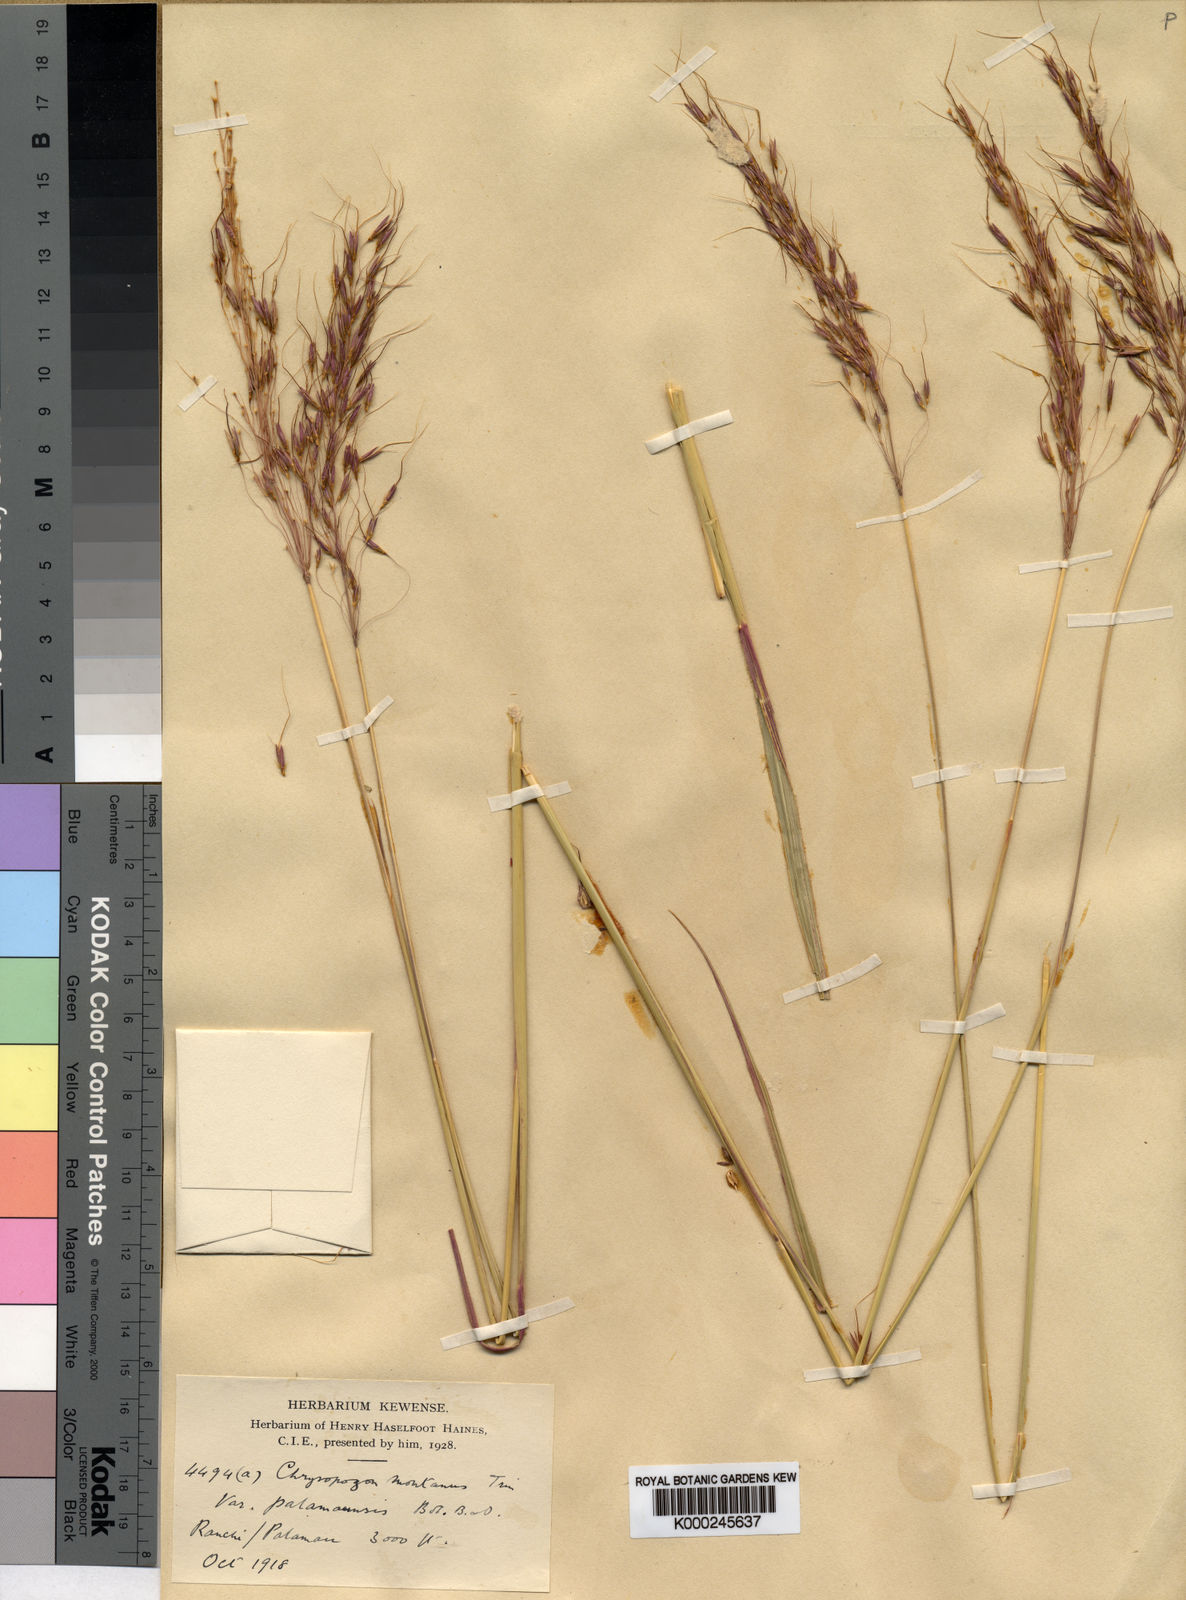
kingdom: Plantae
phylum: Tracheophyta
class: Liliopsida
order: Poales
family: Poaceae
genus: Chrysopogon
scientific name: Chrysopogon
